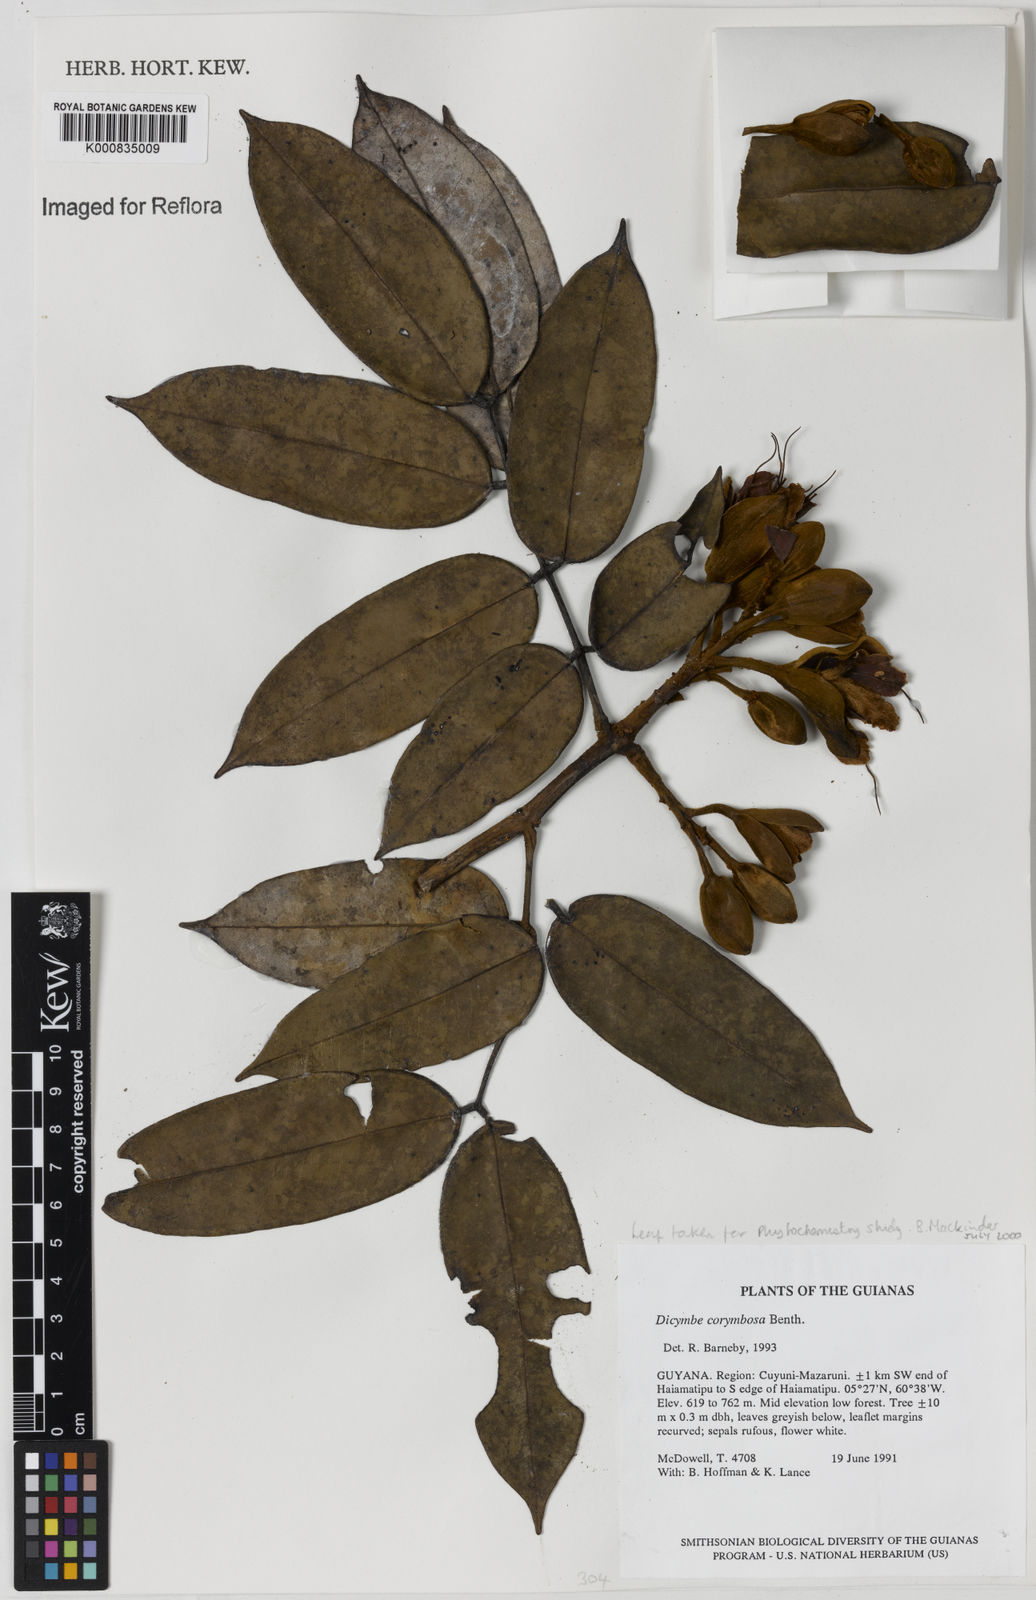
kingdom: Plantae
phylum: Tracheophyta
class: Magnoliopsida
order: Fabales
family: Fabaceae
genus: Dicymbe
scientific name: Dicymbe corymbosa
